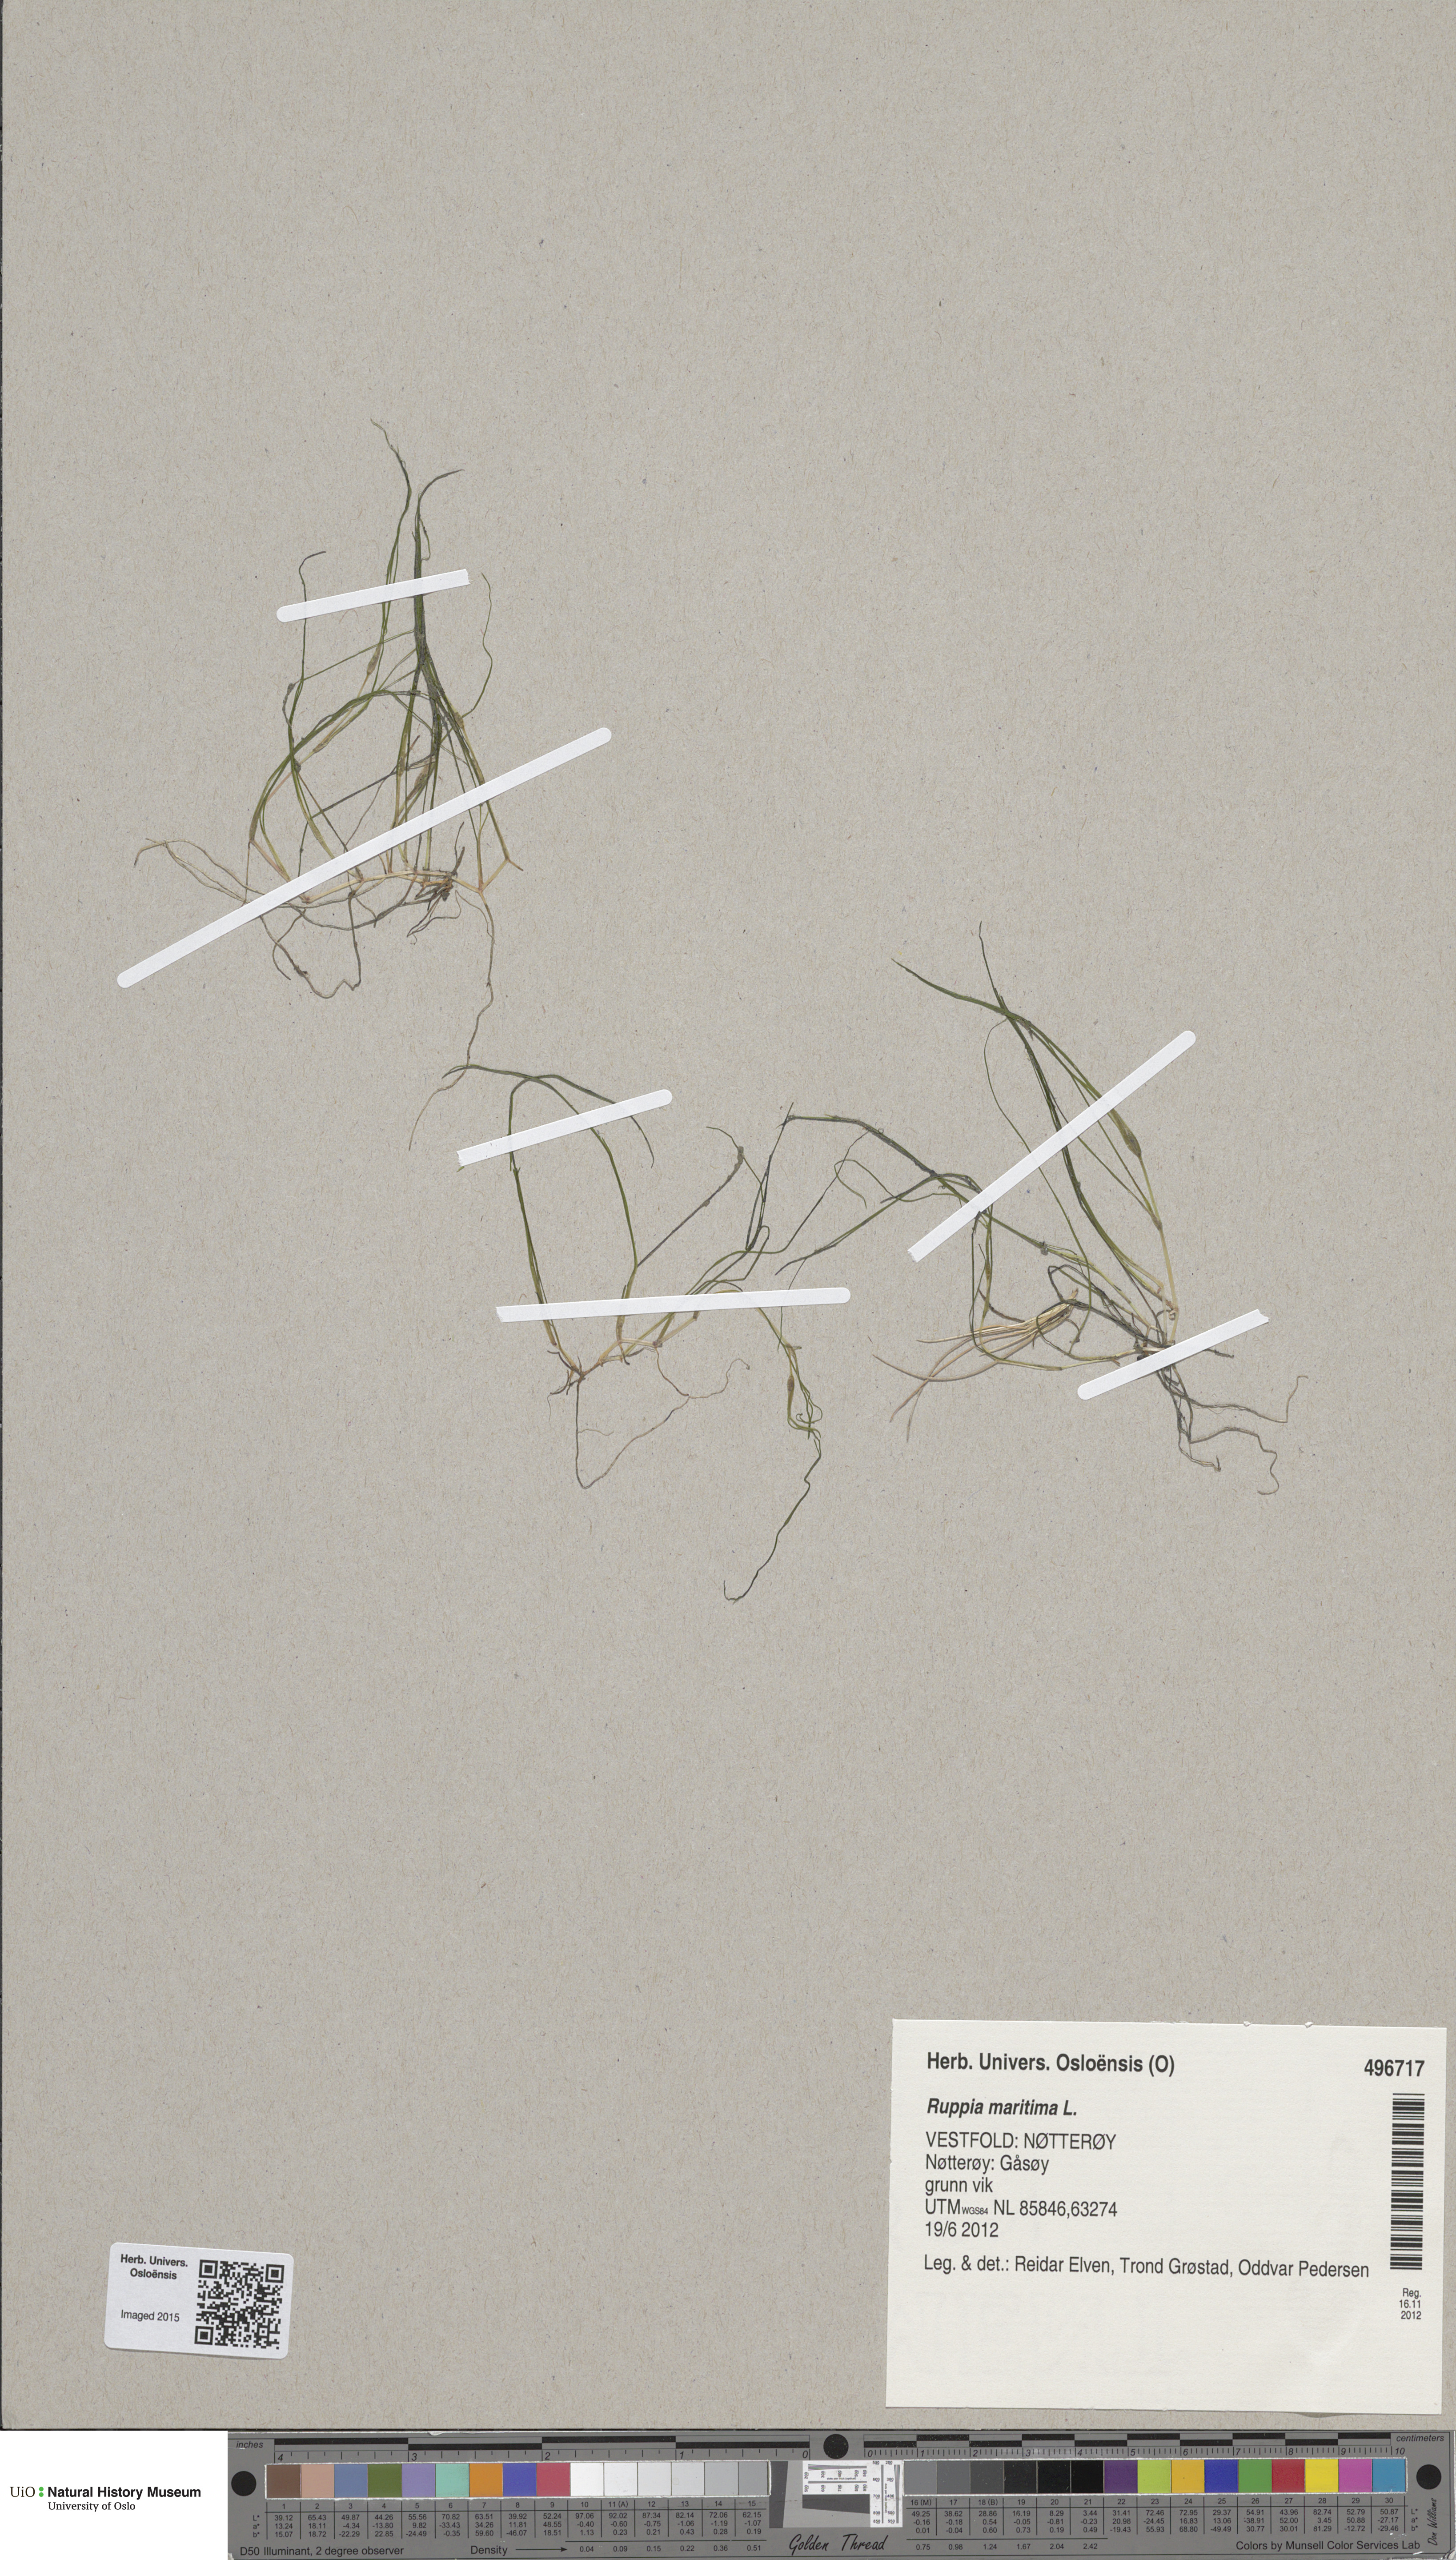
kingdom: Plantae
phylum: Tracheophyta
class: Liliopsida
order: Alismatales
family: Ruppiaceae
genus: Ruppia
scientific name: Ruppia maritima
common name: Beaked tasselweed
